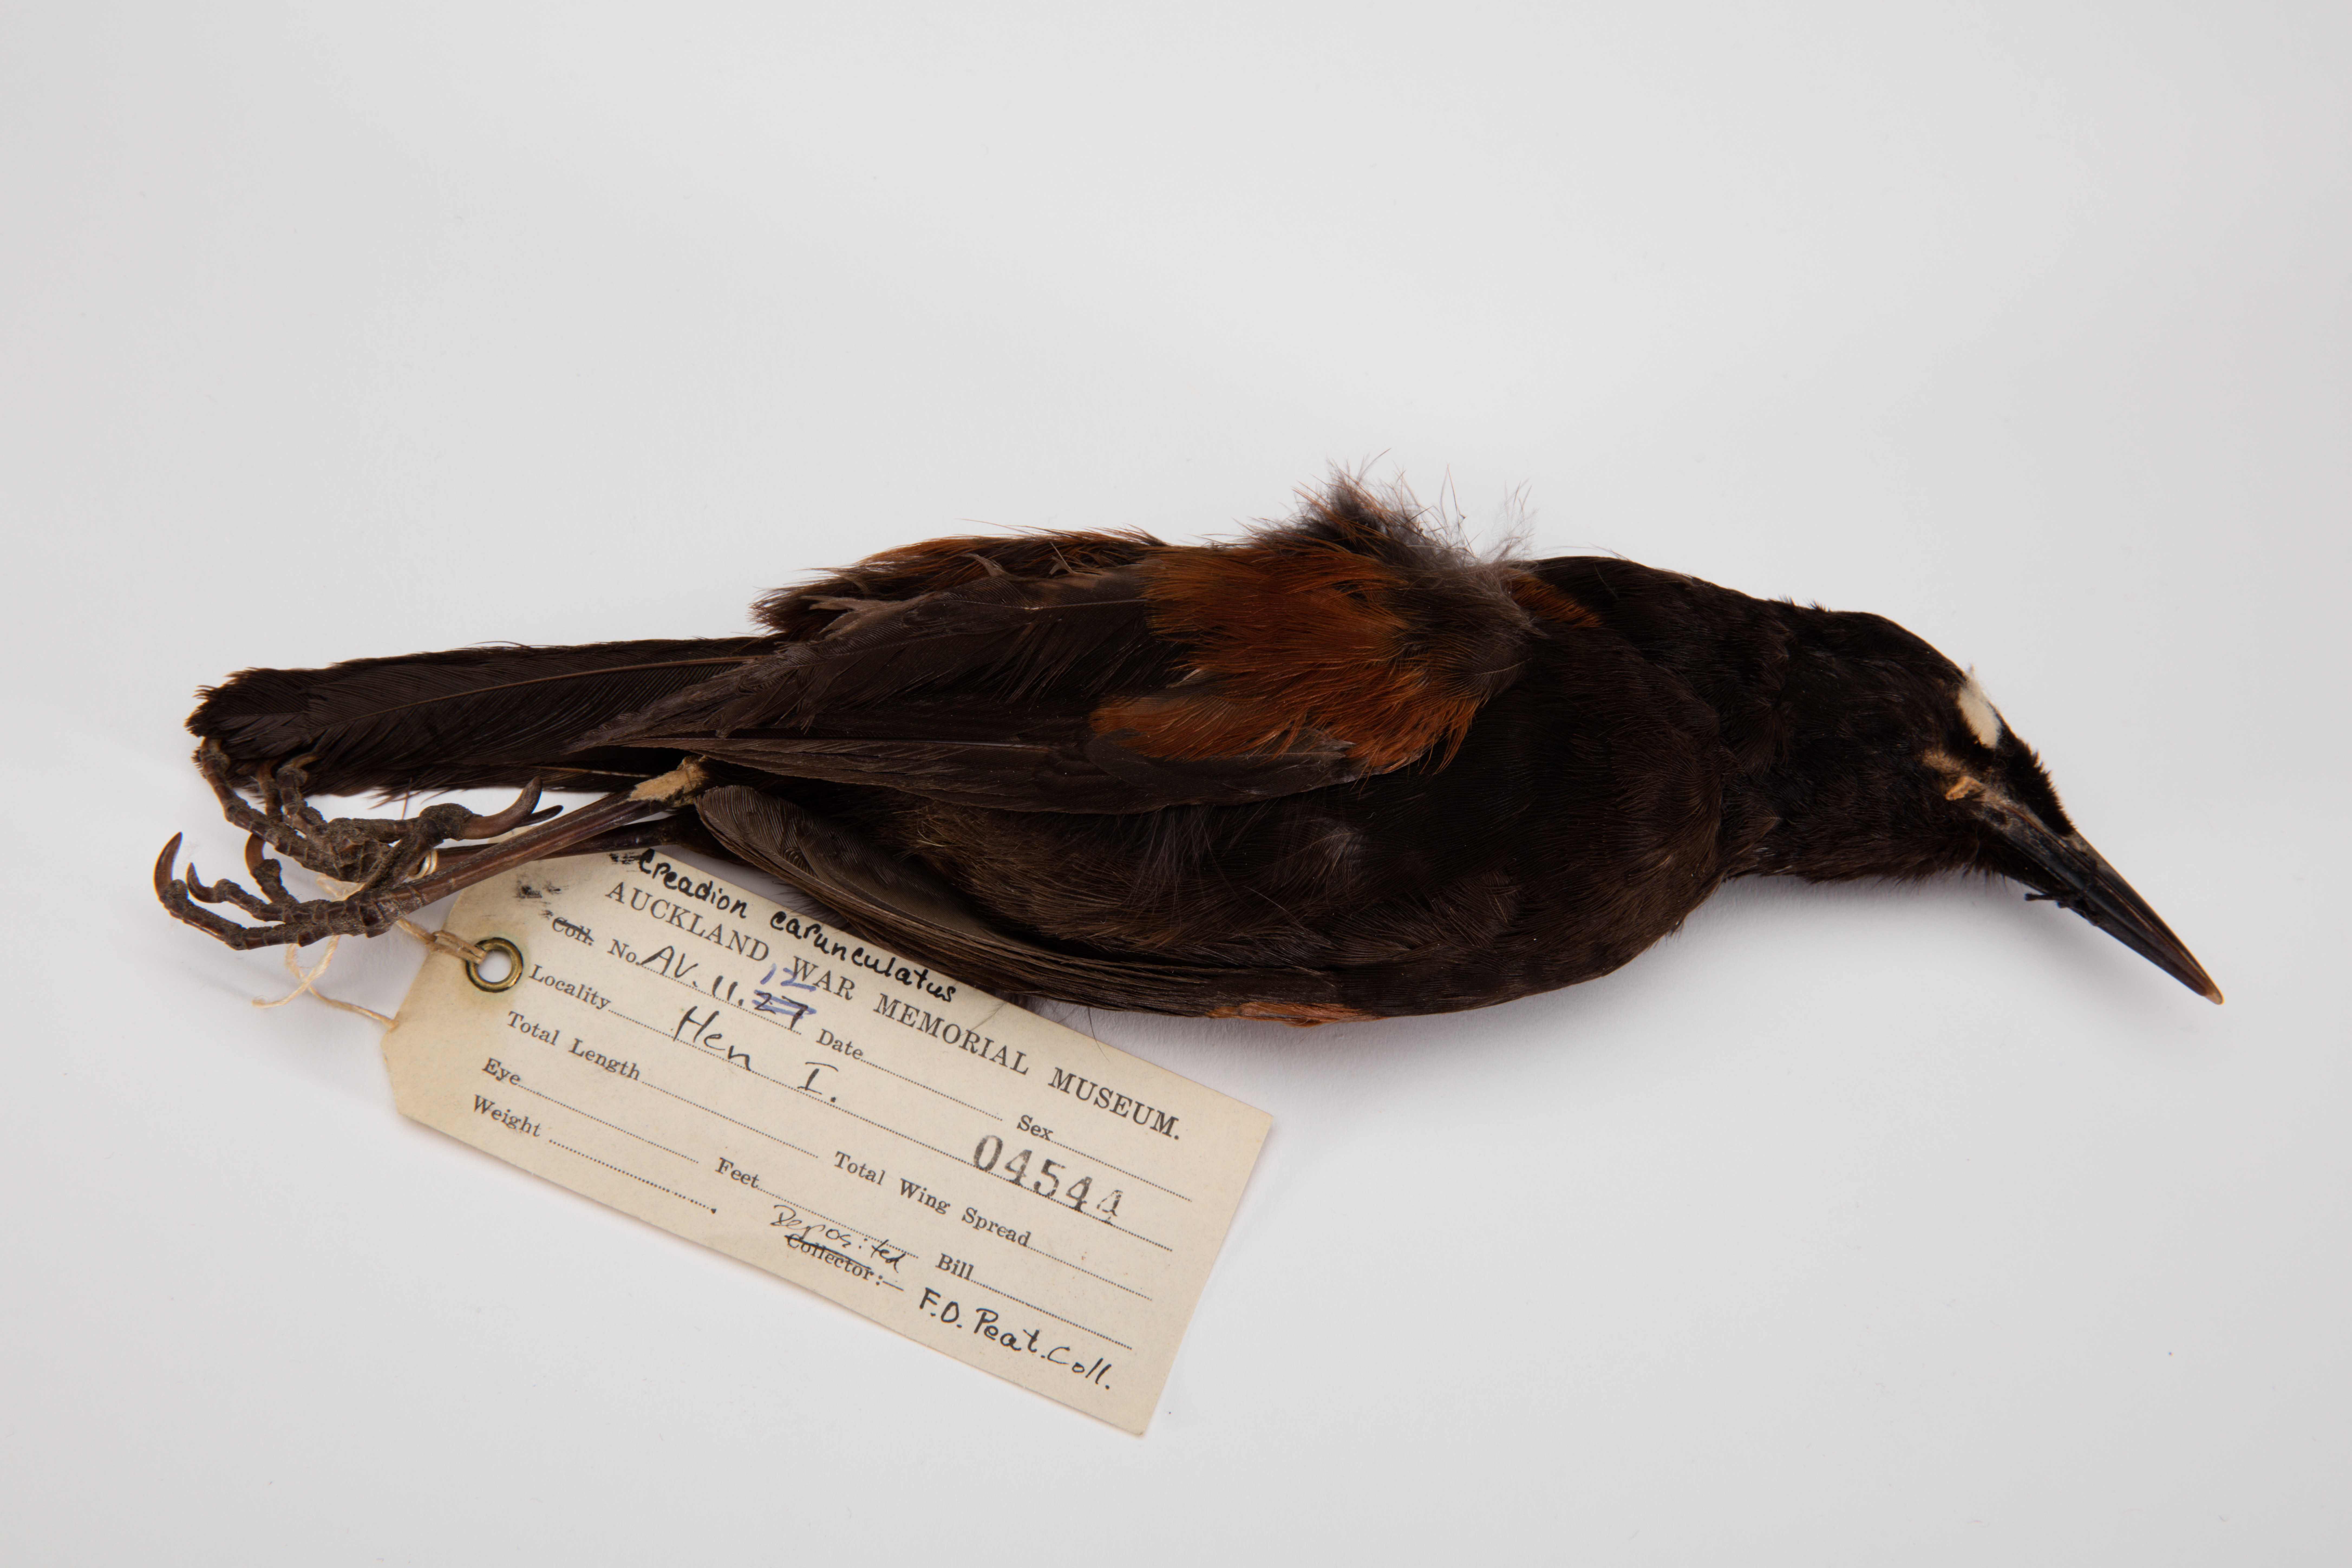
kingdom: Animalia
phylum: Chordata
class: Aves
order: Passeriformes
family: Callaeatidae
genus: Philesturnus
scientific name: Philesturnus carunculatus
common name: South island saddleback
